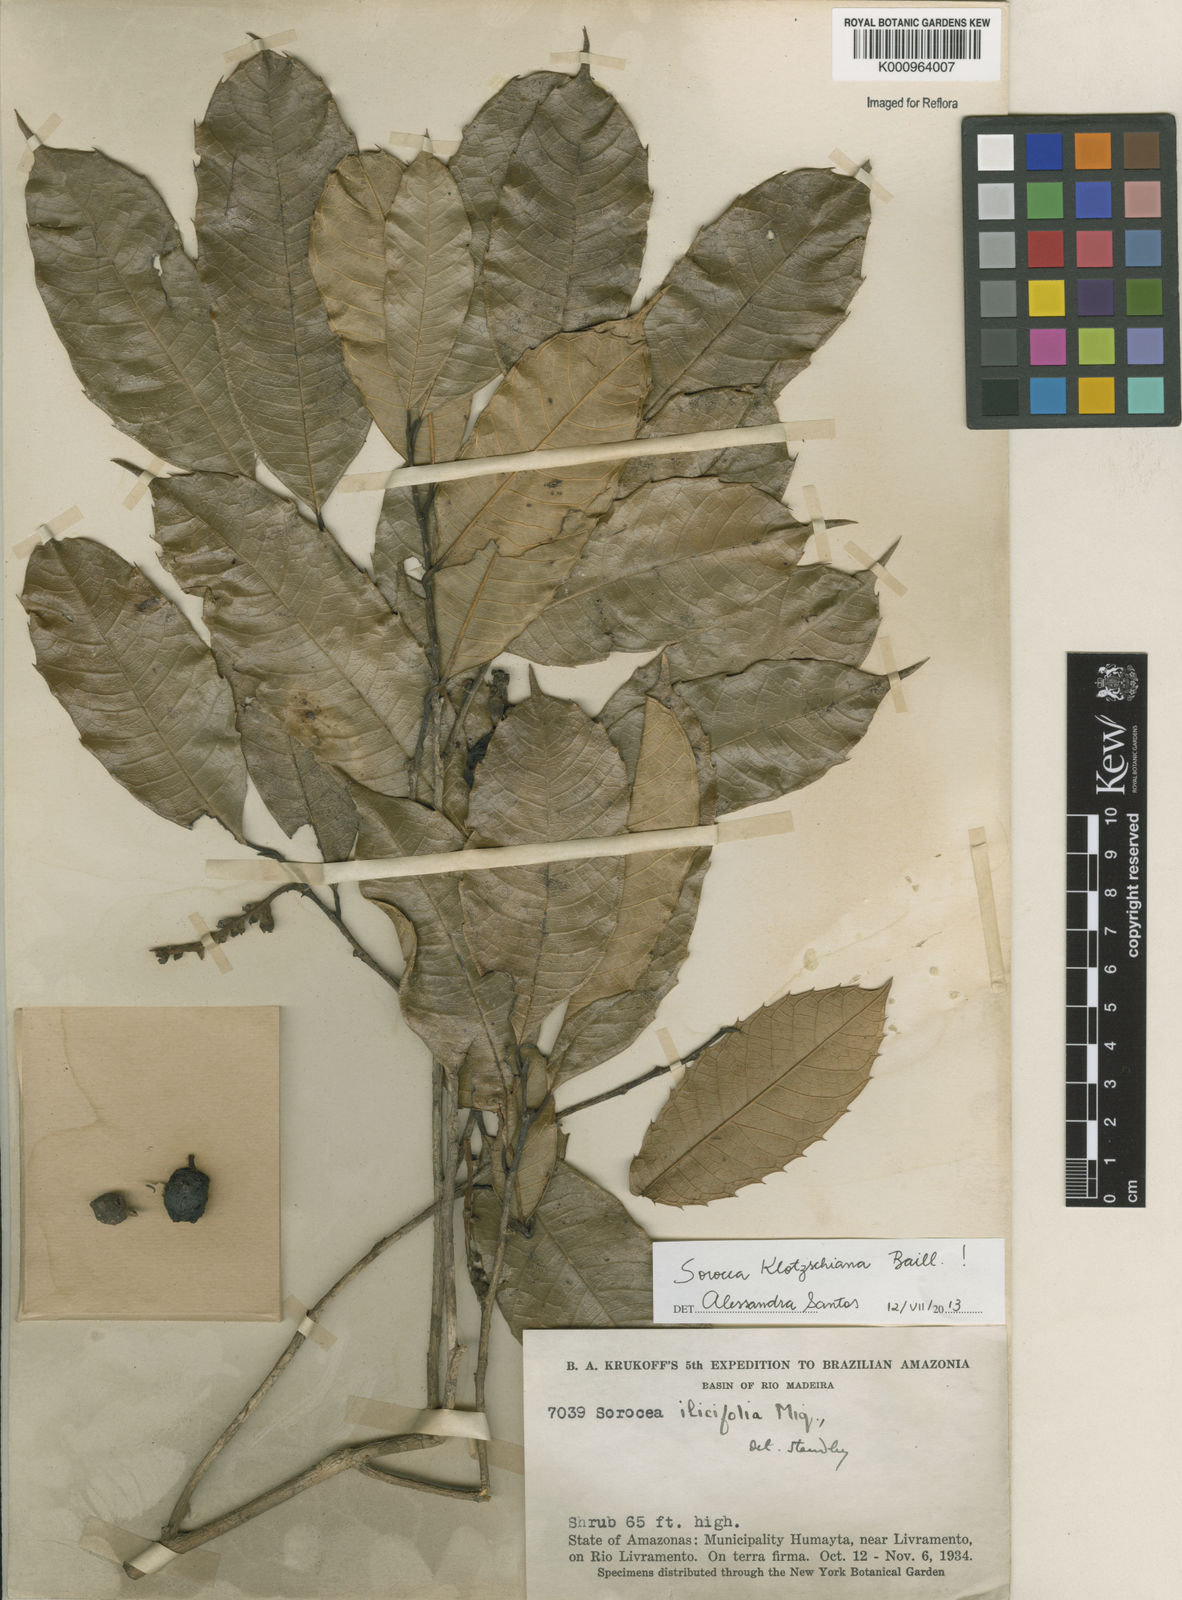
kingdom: Plantae
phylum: Tracheophyta
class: Magnoliopsida
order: Rosales
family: Moraceae
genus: Sorocea
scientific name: Sorocea guilleminiana
